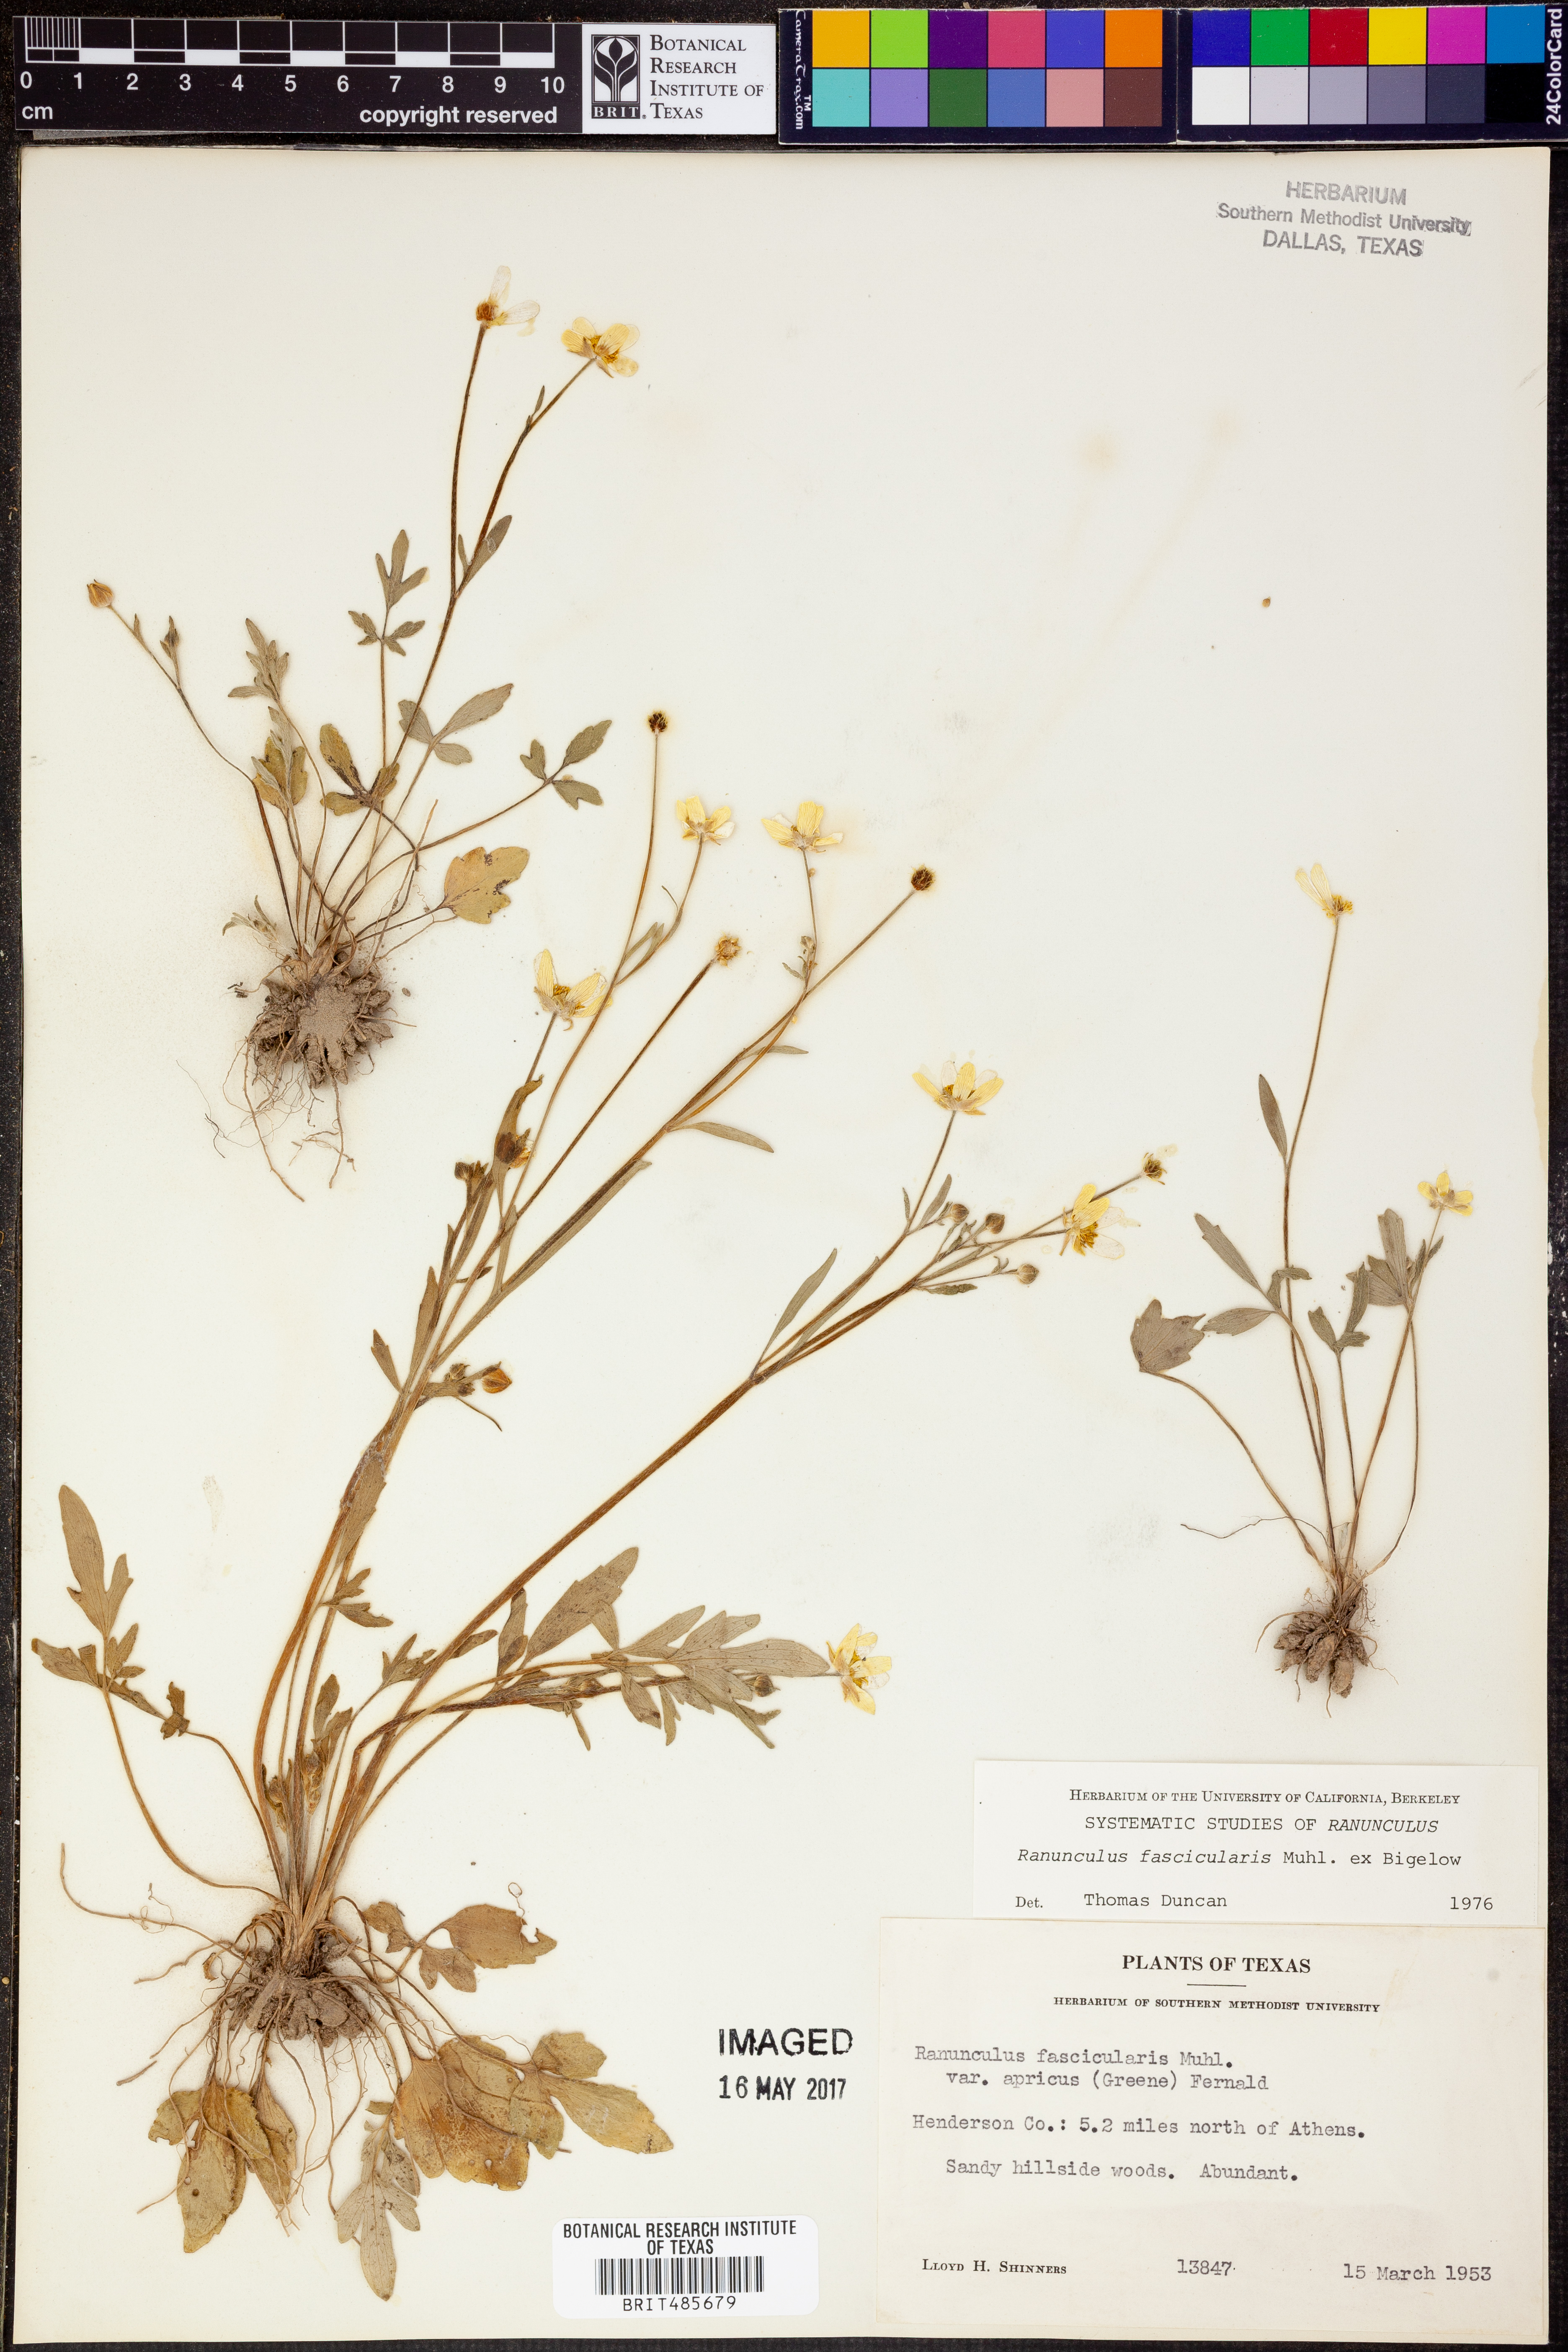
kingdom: Plantae
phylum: Tracheophyta
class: Magnoliopsida
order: Ranunculales
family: Ranunculaceae
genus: Ranunculus
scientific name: Ranunculus fascicularis
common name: Early buttercup
